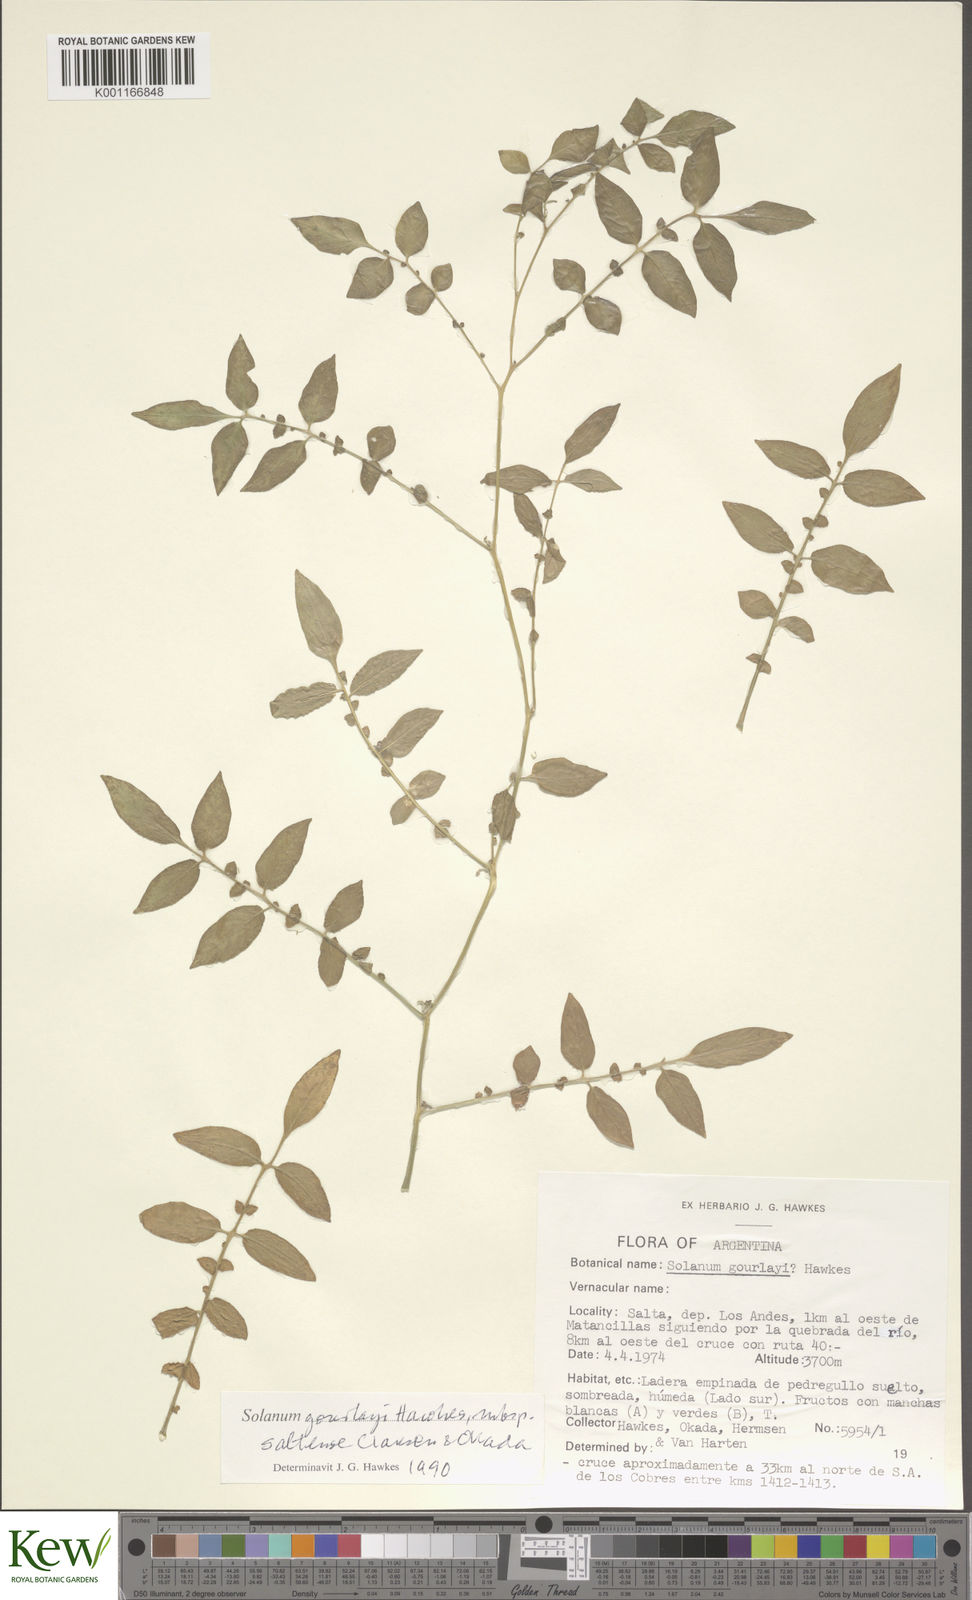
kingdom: Plantae
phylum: Tracheophyta
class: Magnoliopsida
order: Solanales
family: Solanaceae
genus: Solanum
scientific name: Solanum brevicaule
